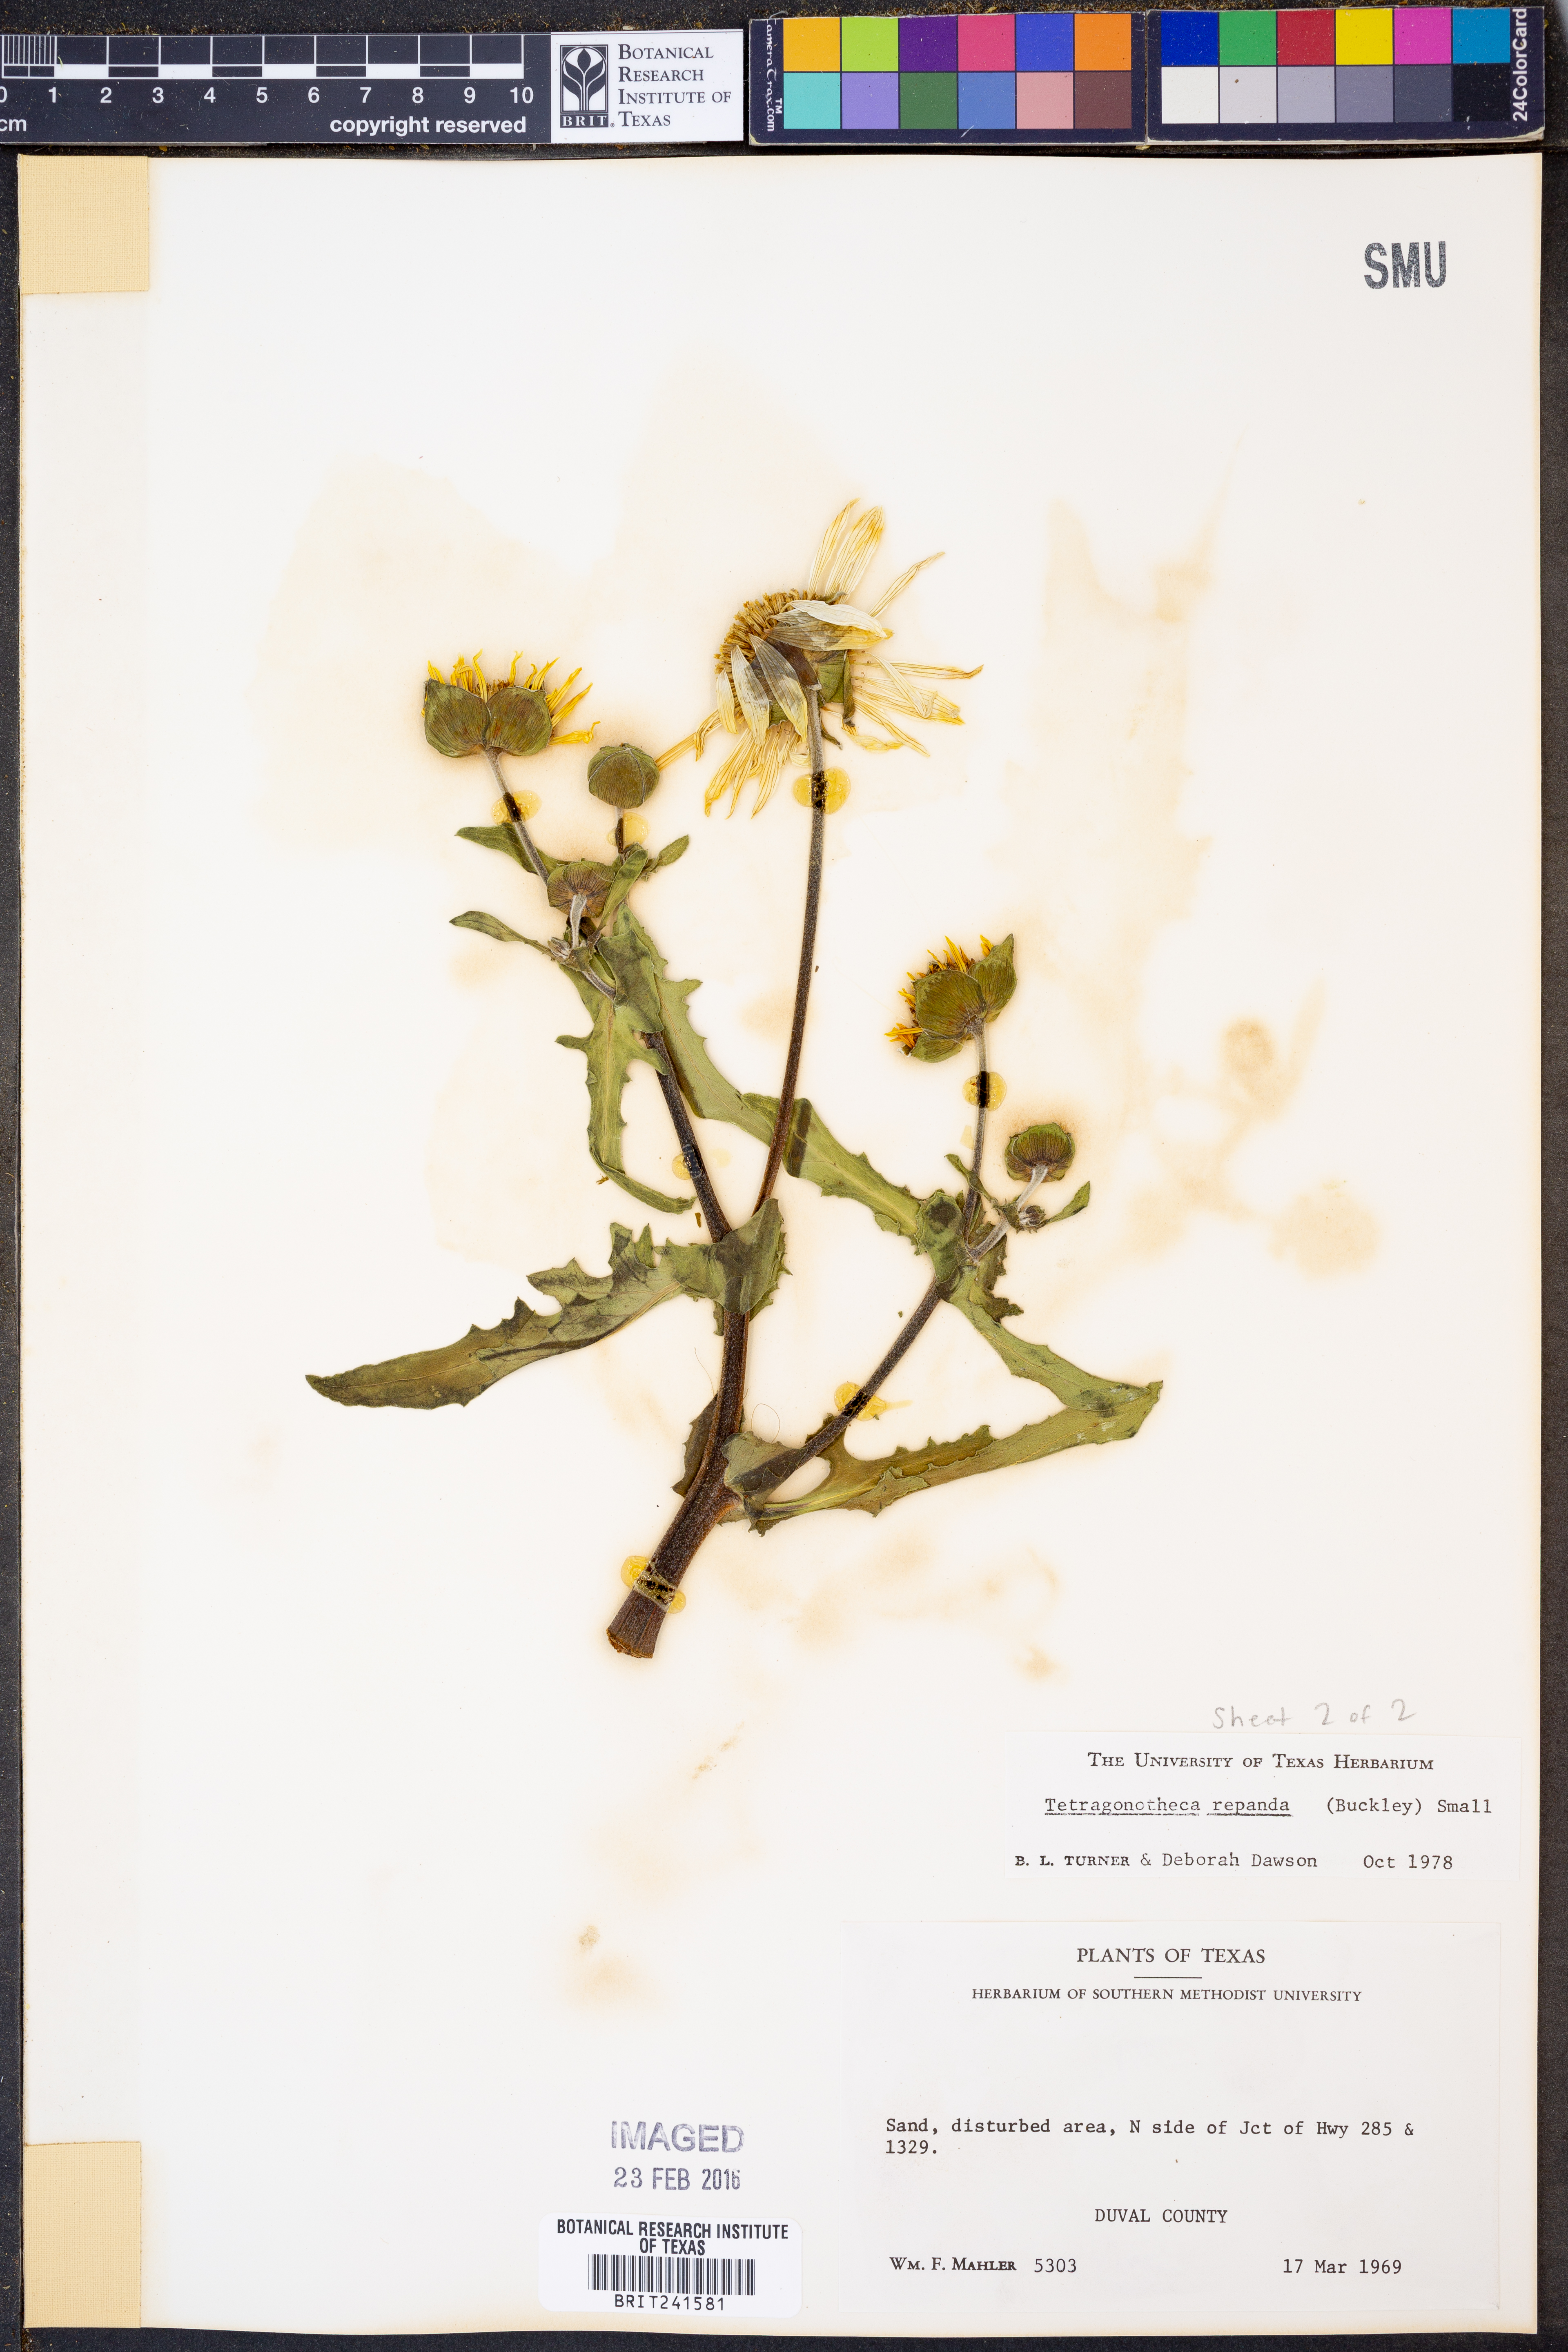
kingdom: Plantae
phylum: Tracheophyta
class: Magnoliopsida
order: Asterales
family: Asteraceae
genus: Tetragonotheca
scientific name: Tetragonotheca repanda
